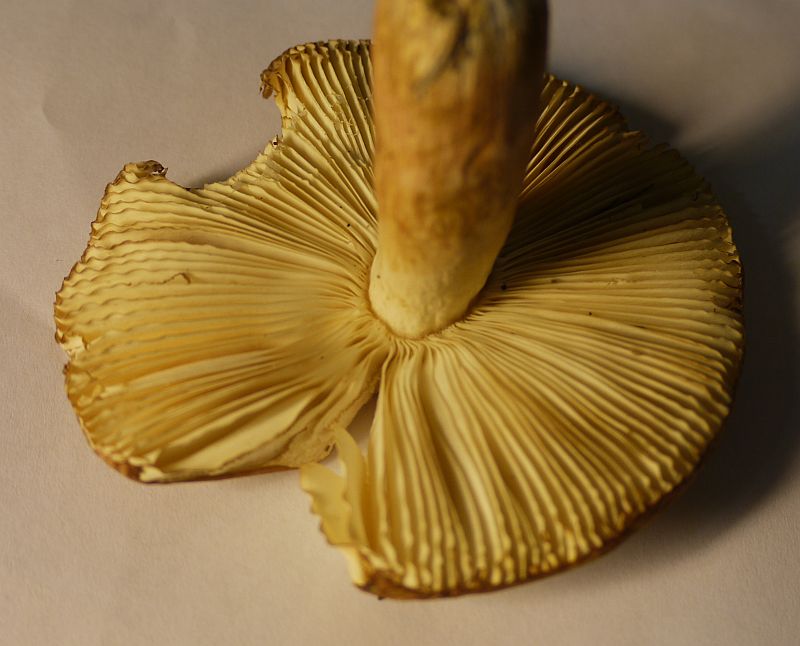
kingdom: Fungi
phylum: Basidiomycota
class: Agaricomycetes
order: Russulales
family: Russulaceae
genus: Russula
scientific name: Russula violeipes
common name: ferskengul skørhat
